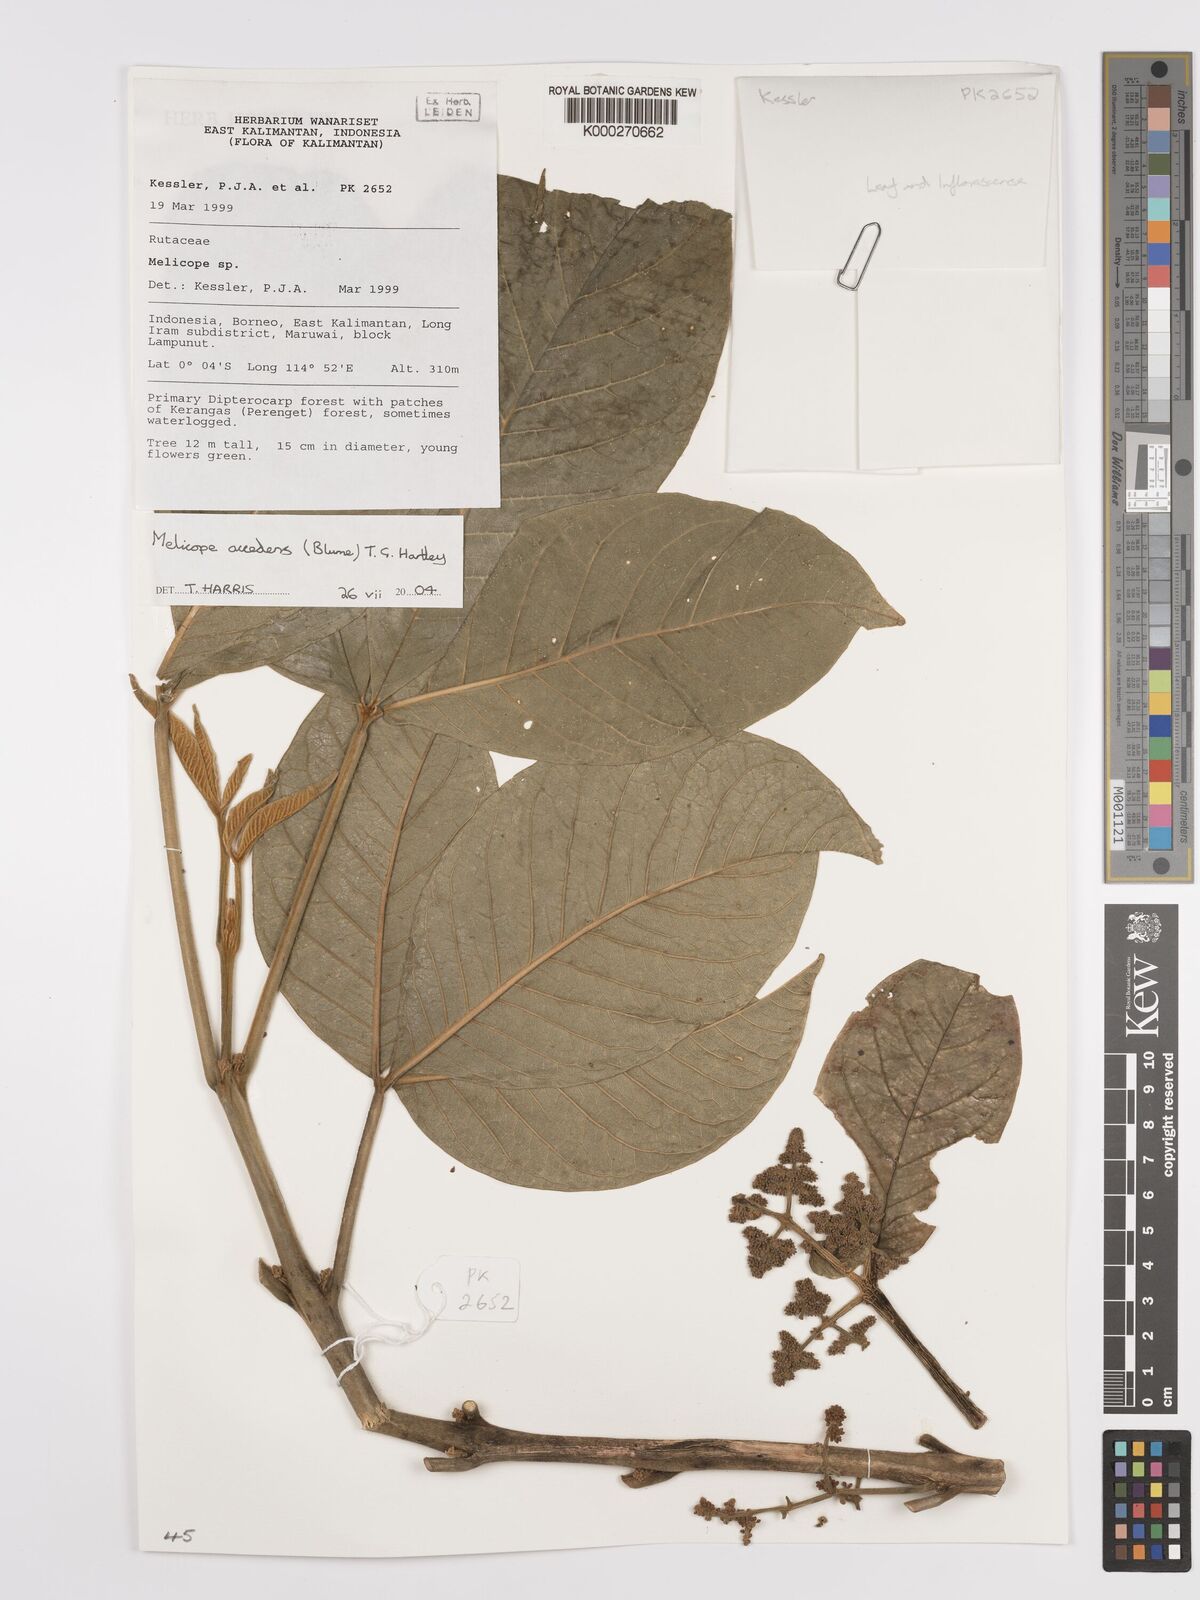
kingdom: Plantae
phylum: Tracheophyta
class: Magnoliopsida
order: Sapindales
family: Rutaceae
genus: Melicope
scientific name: Melicope accedens
